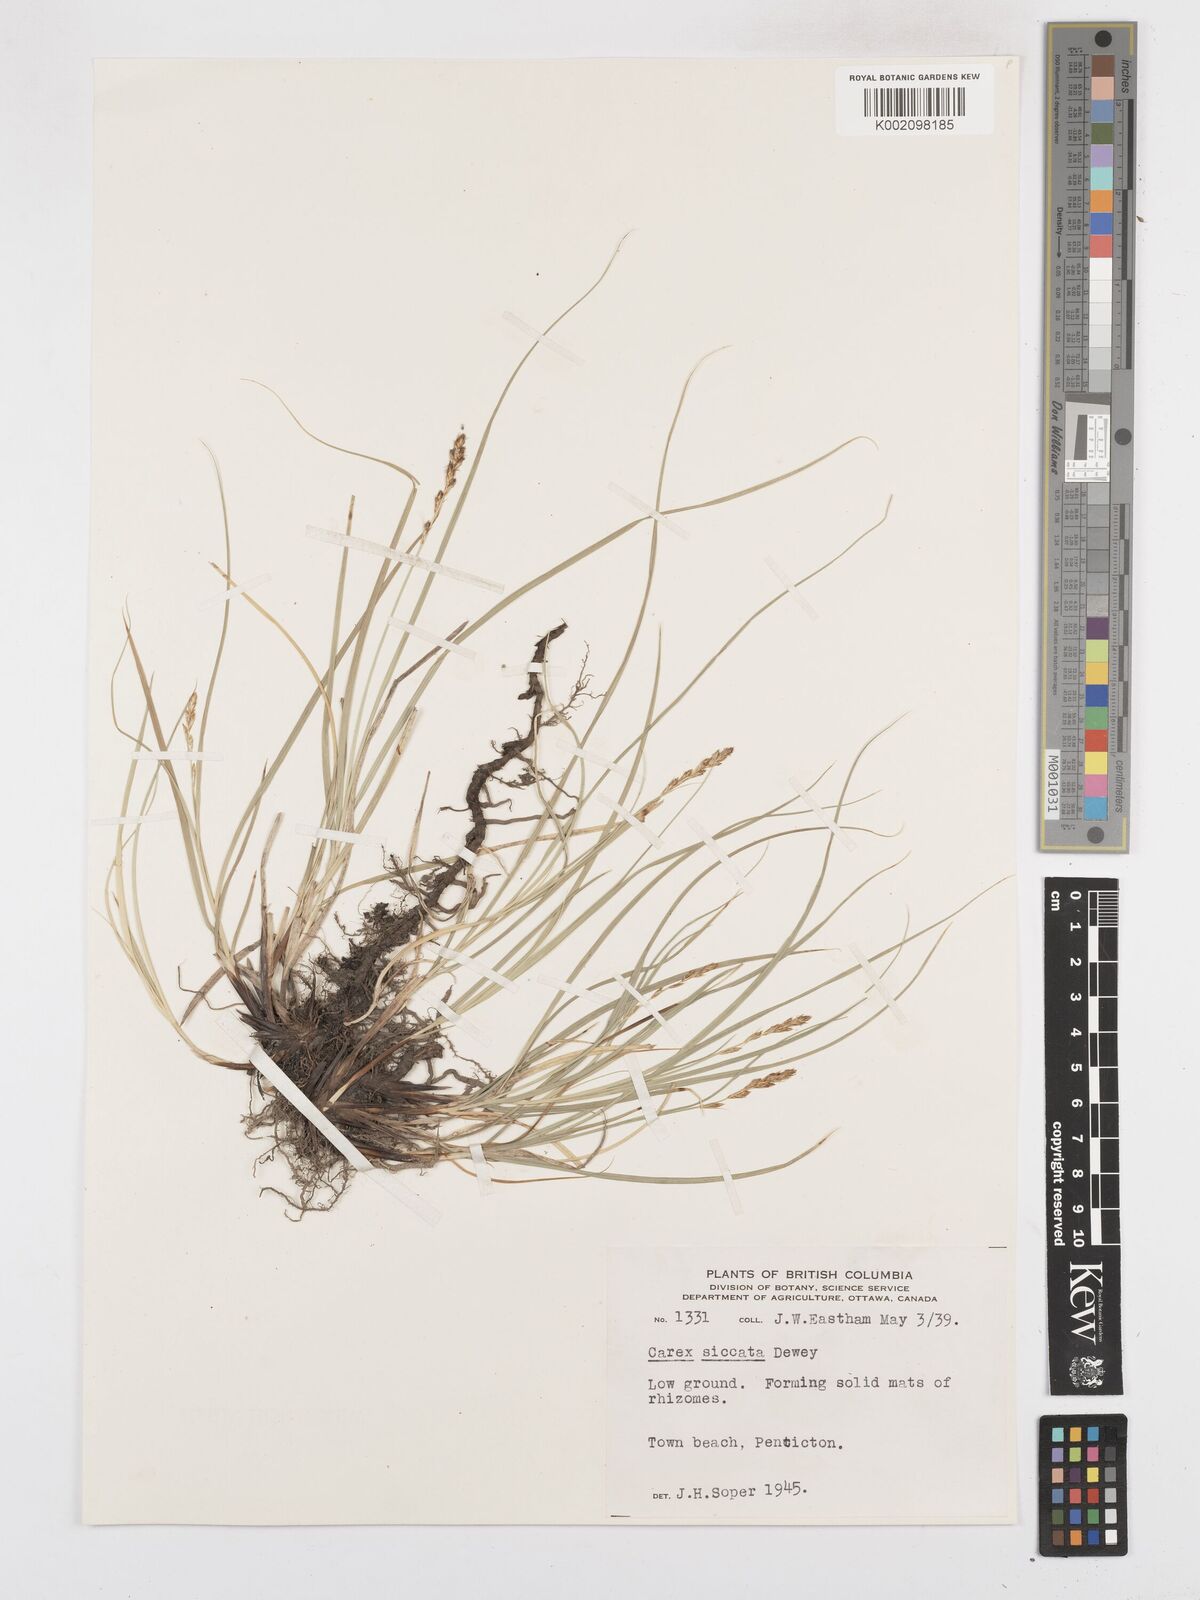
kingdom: Plantae
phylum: Tracheophyta
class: Liliopsida
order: Poales
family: Cyperaceae
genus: Carex
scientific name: Carex foenea
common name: Bronze sedge
